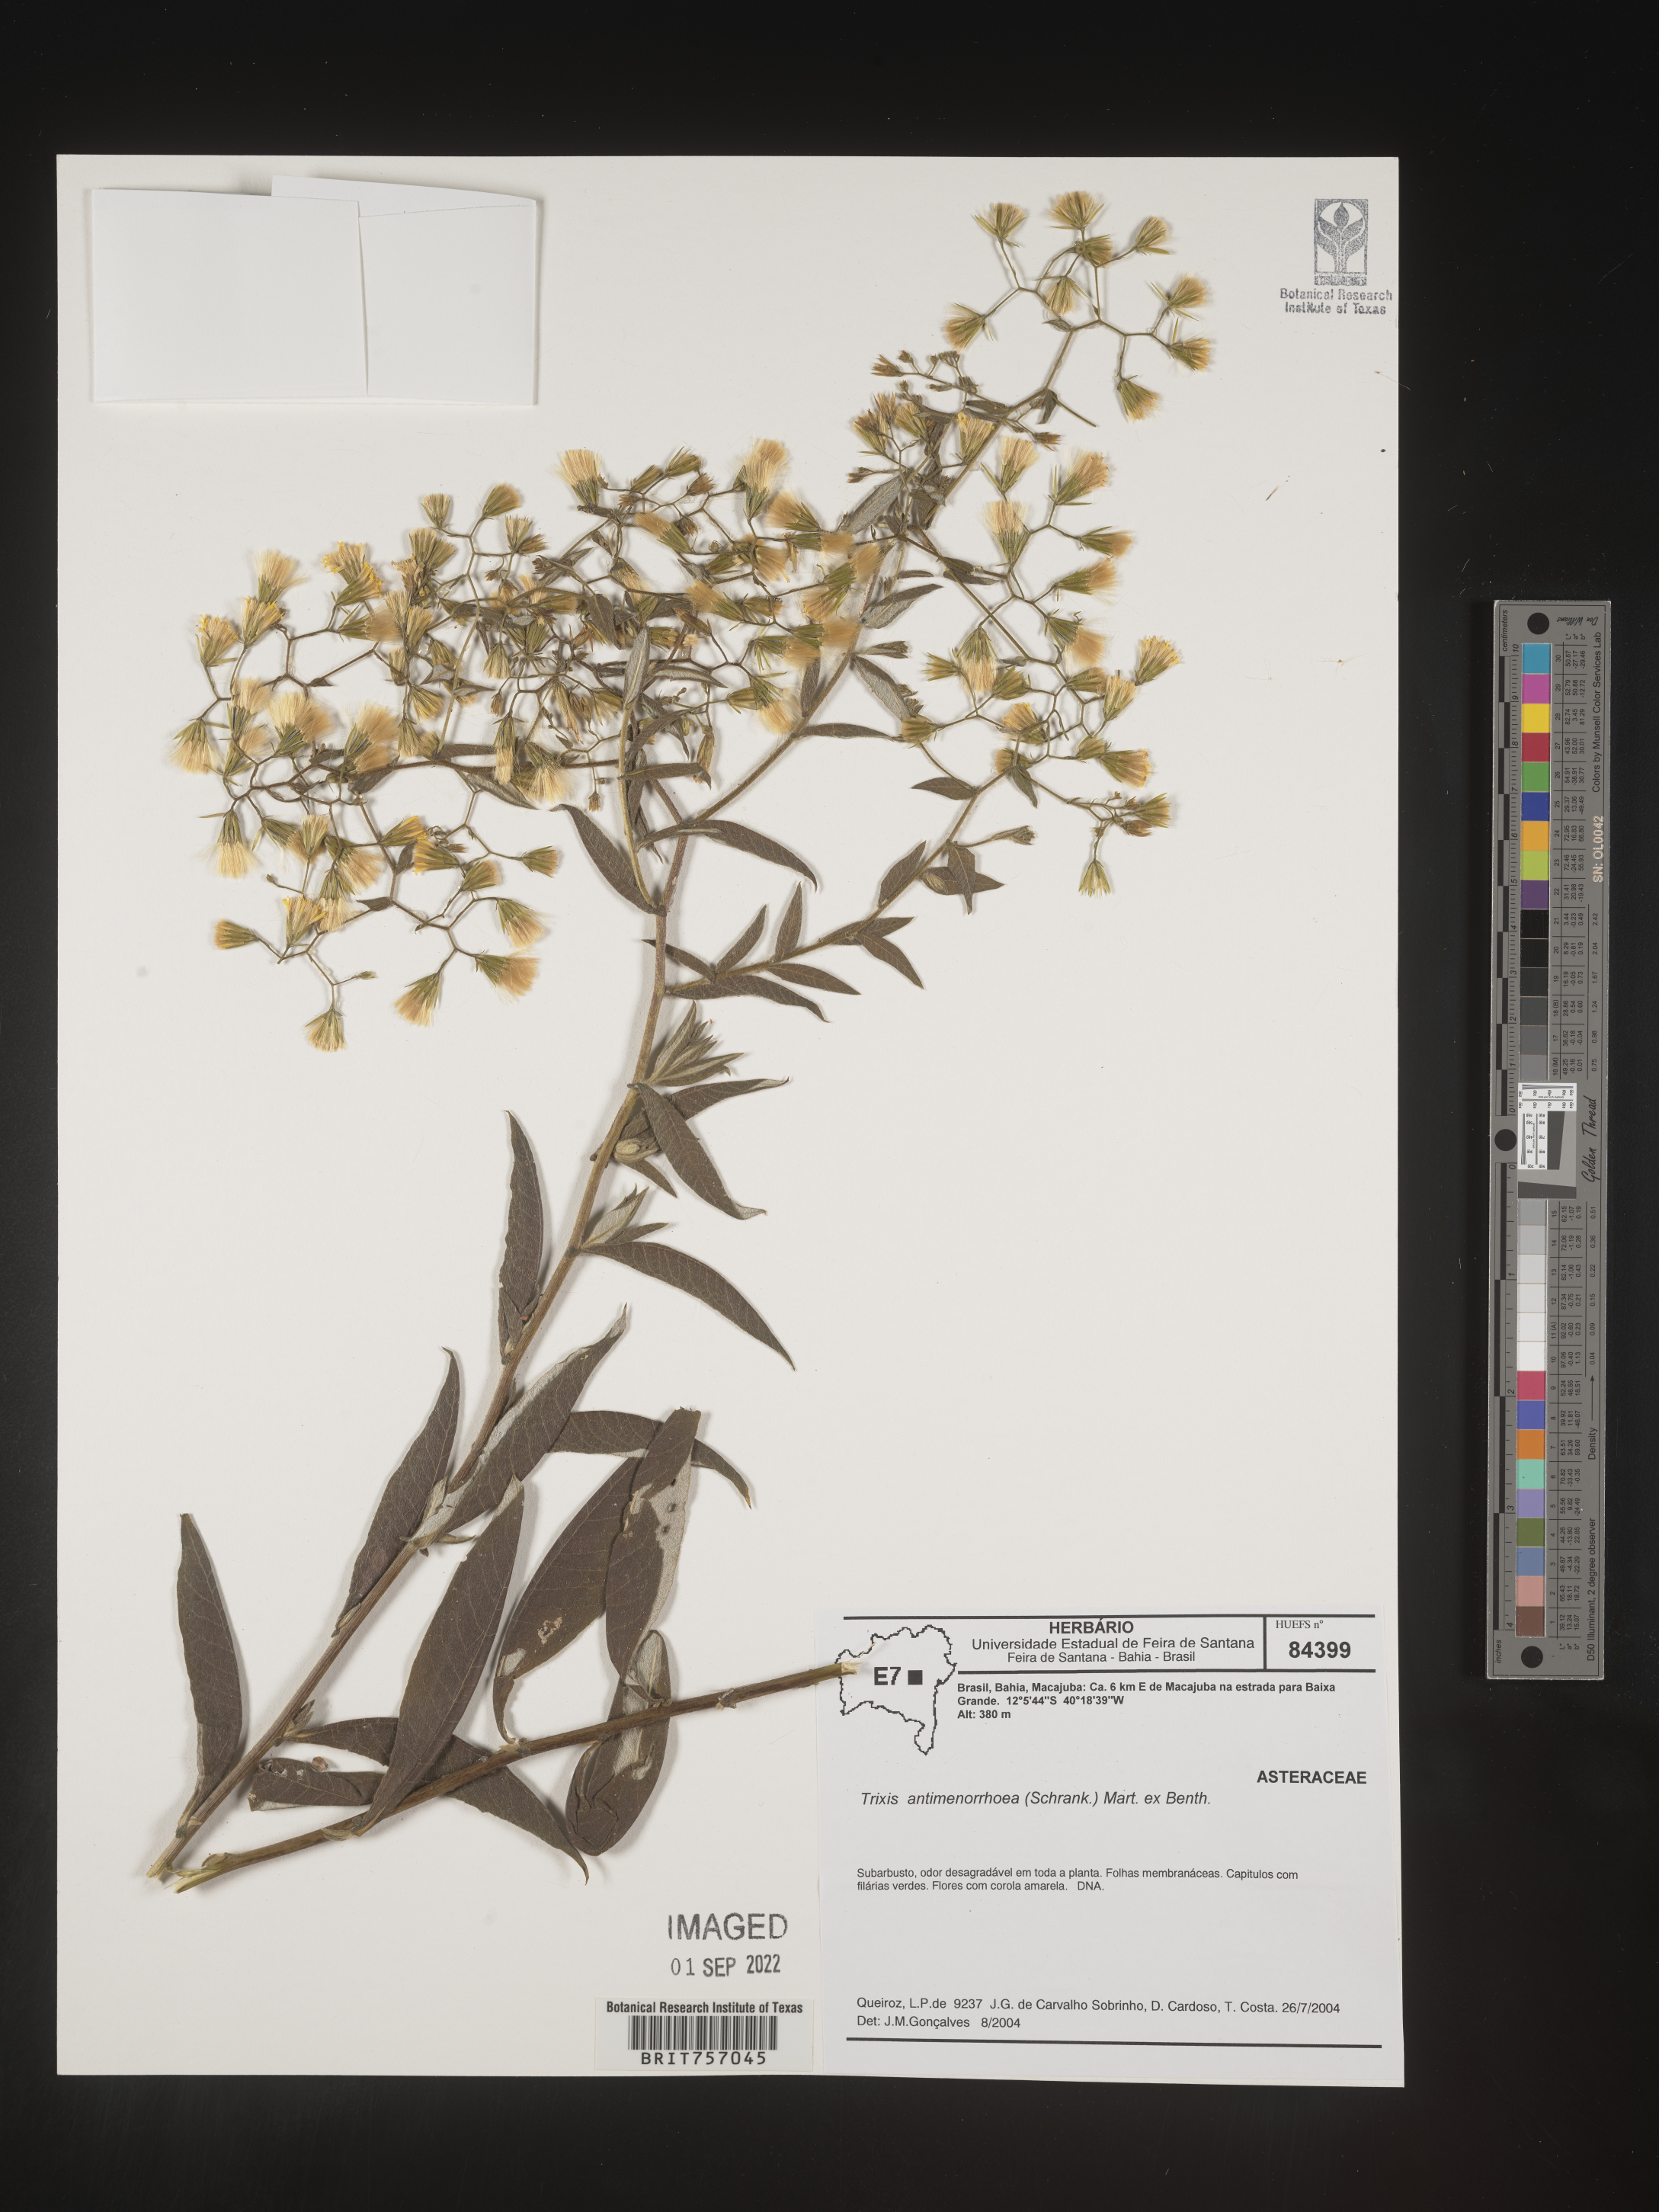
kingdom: Plantae
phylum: Tracheophyta
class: Magnoliopsida
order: Asterales
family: Asteraceae
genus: Trixis
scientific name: Trixis
